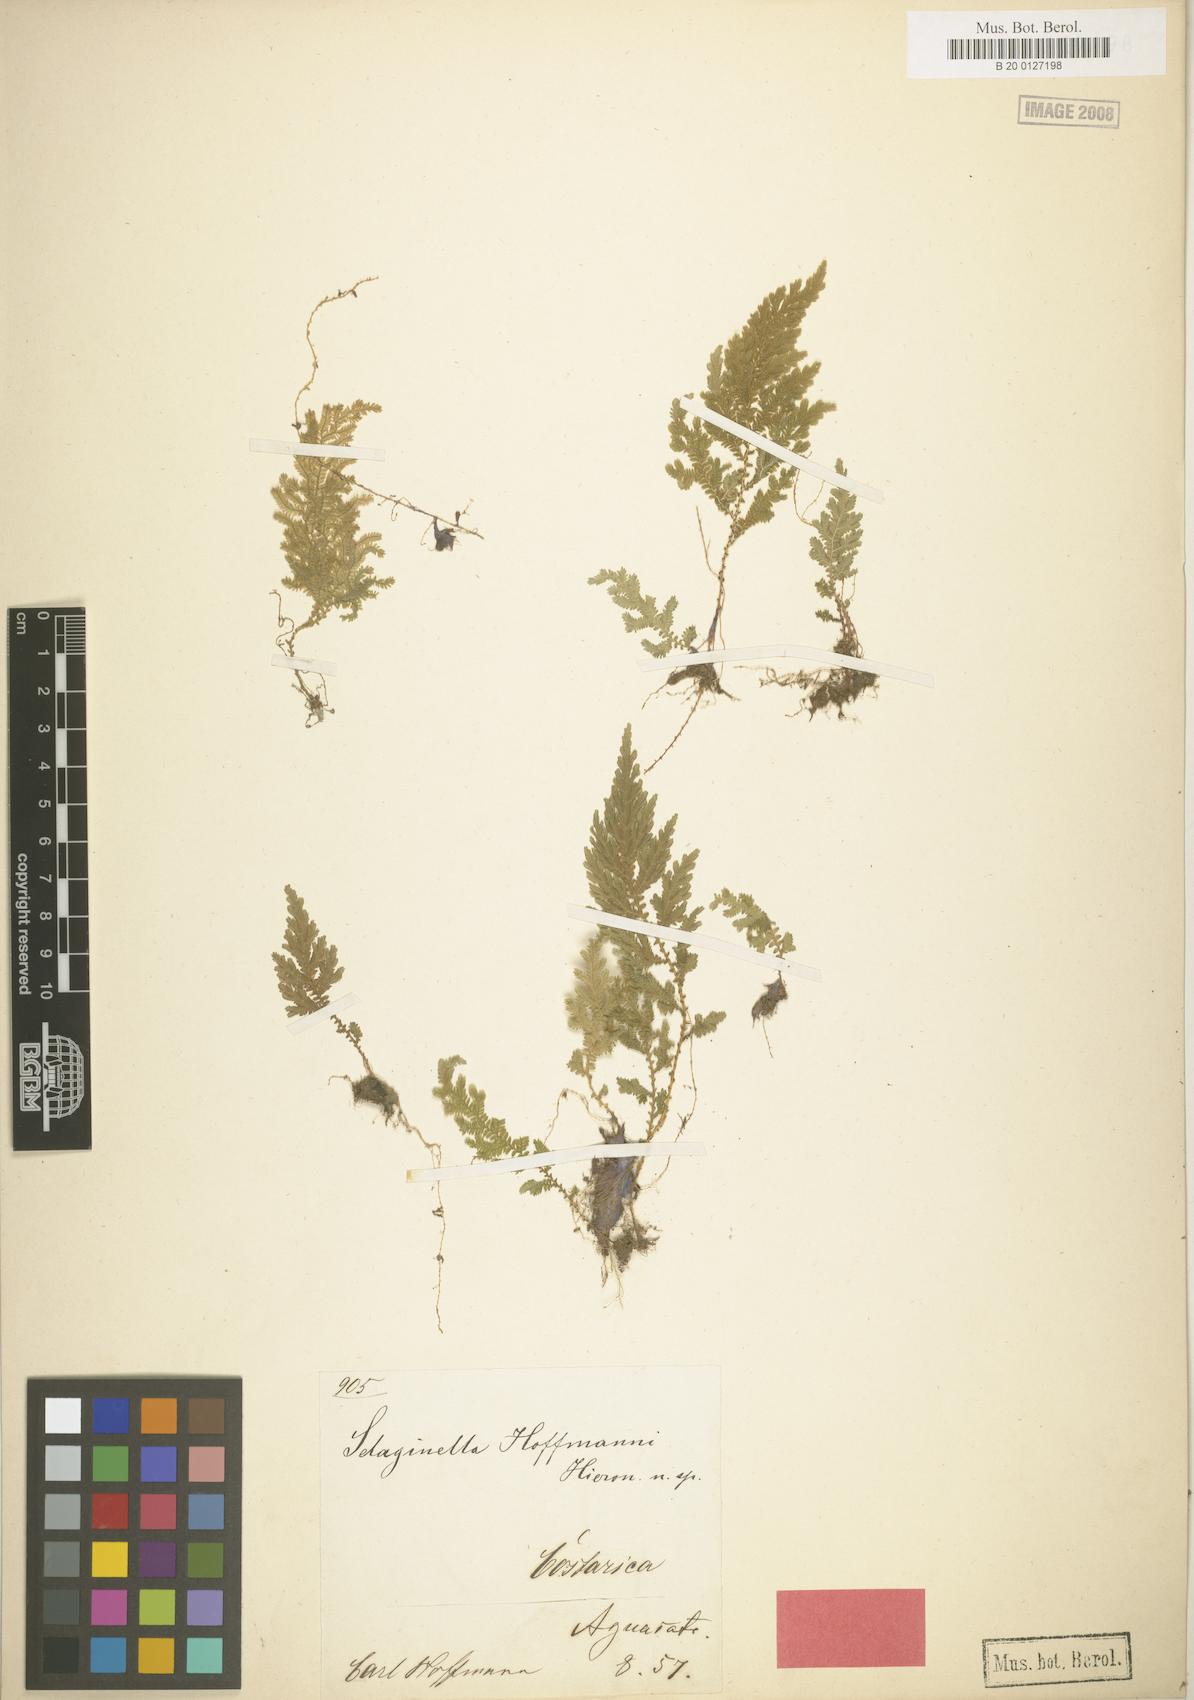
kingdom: Plantae
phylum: Tracheophyta
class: Lycopodiopsida
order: Selaginellales
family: Selaginellaceae
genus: Selaginella
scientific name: Selaginella hoffmannii
